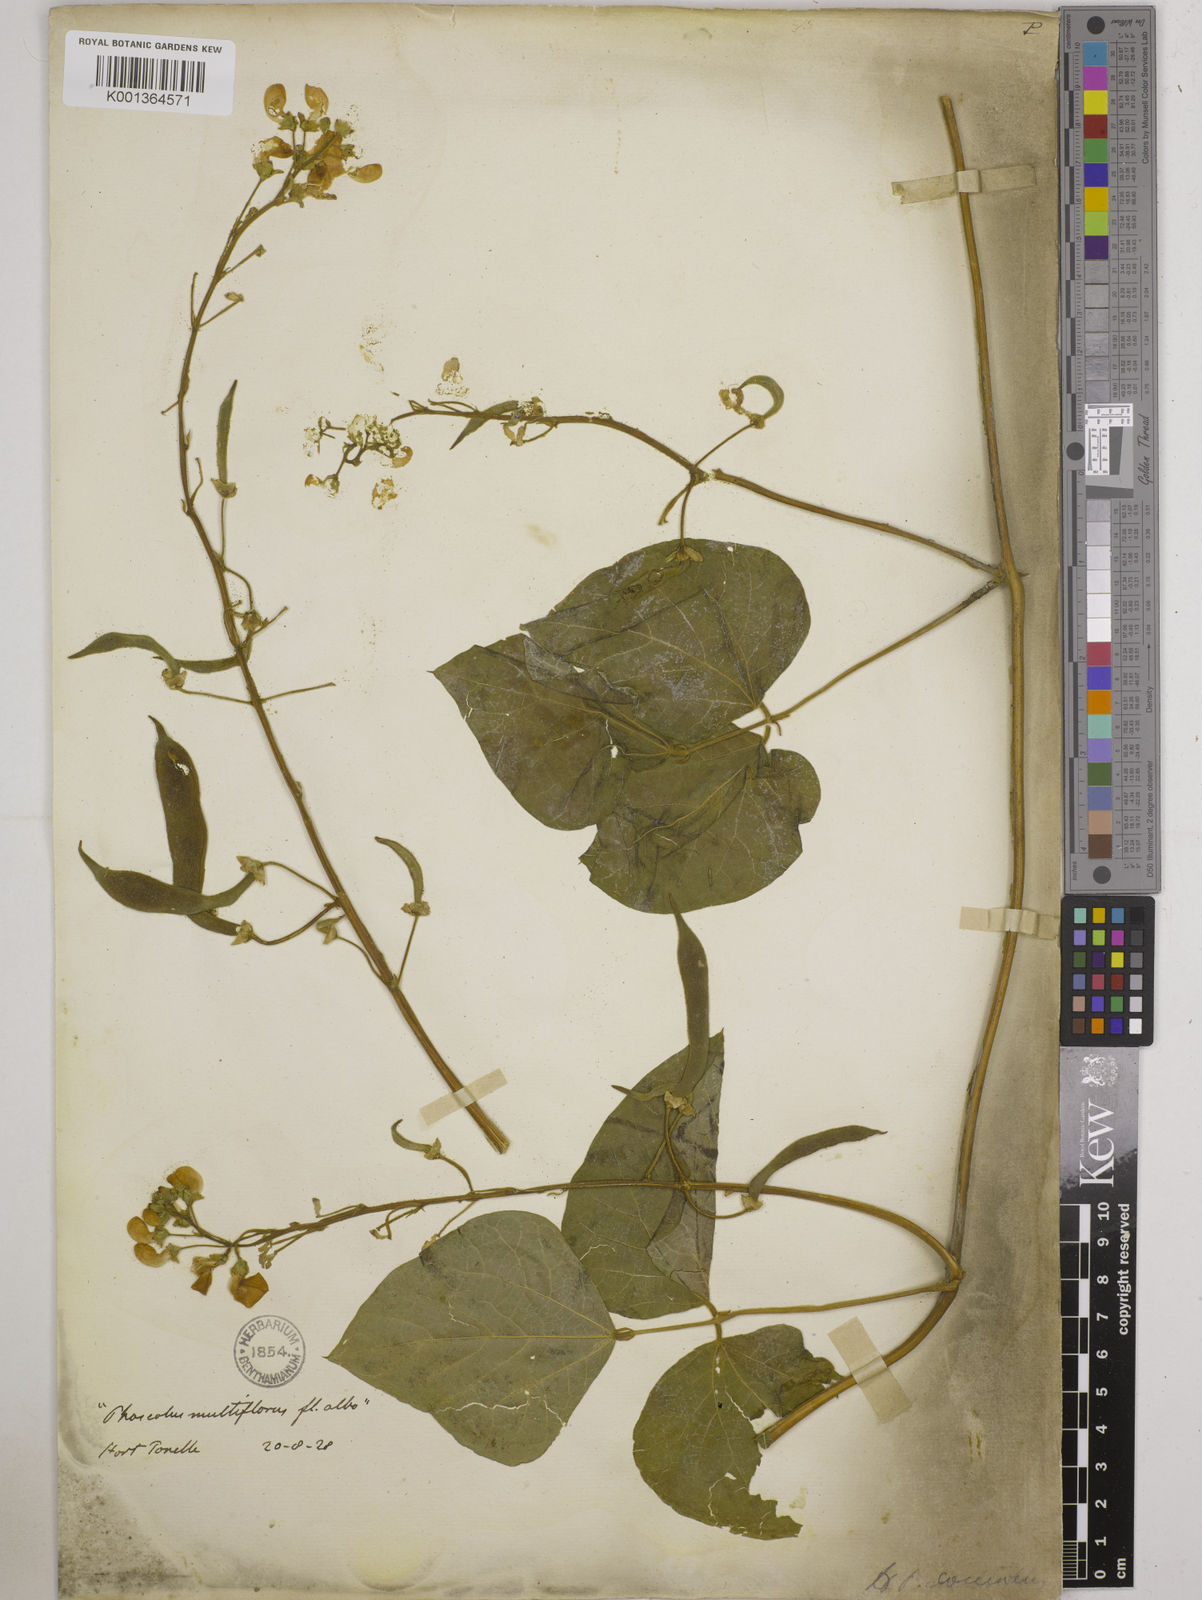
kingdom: Plantae
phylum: Tracheophyta
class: Magnoliopsida
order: Fabales
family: Fabaceae
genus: Phaseolus
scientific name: Phaseolus
